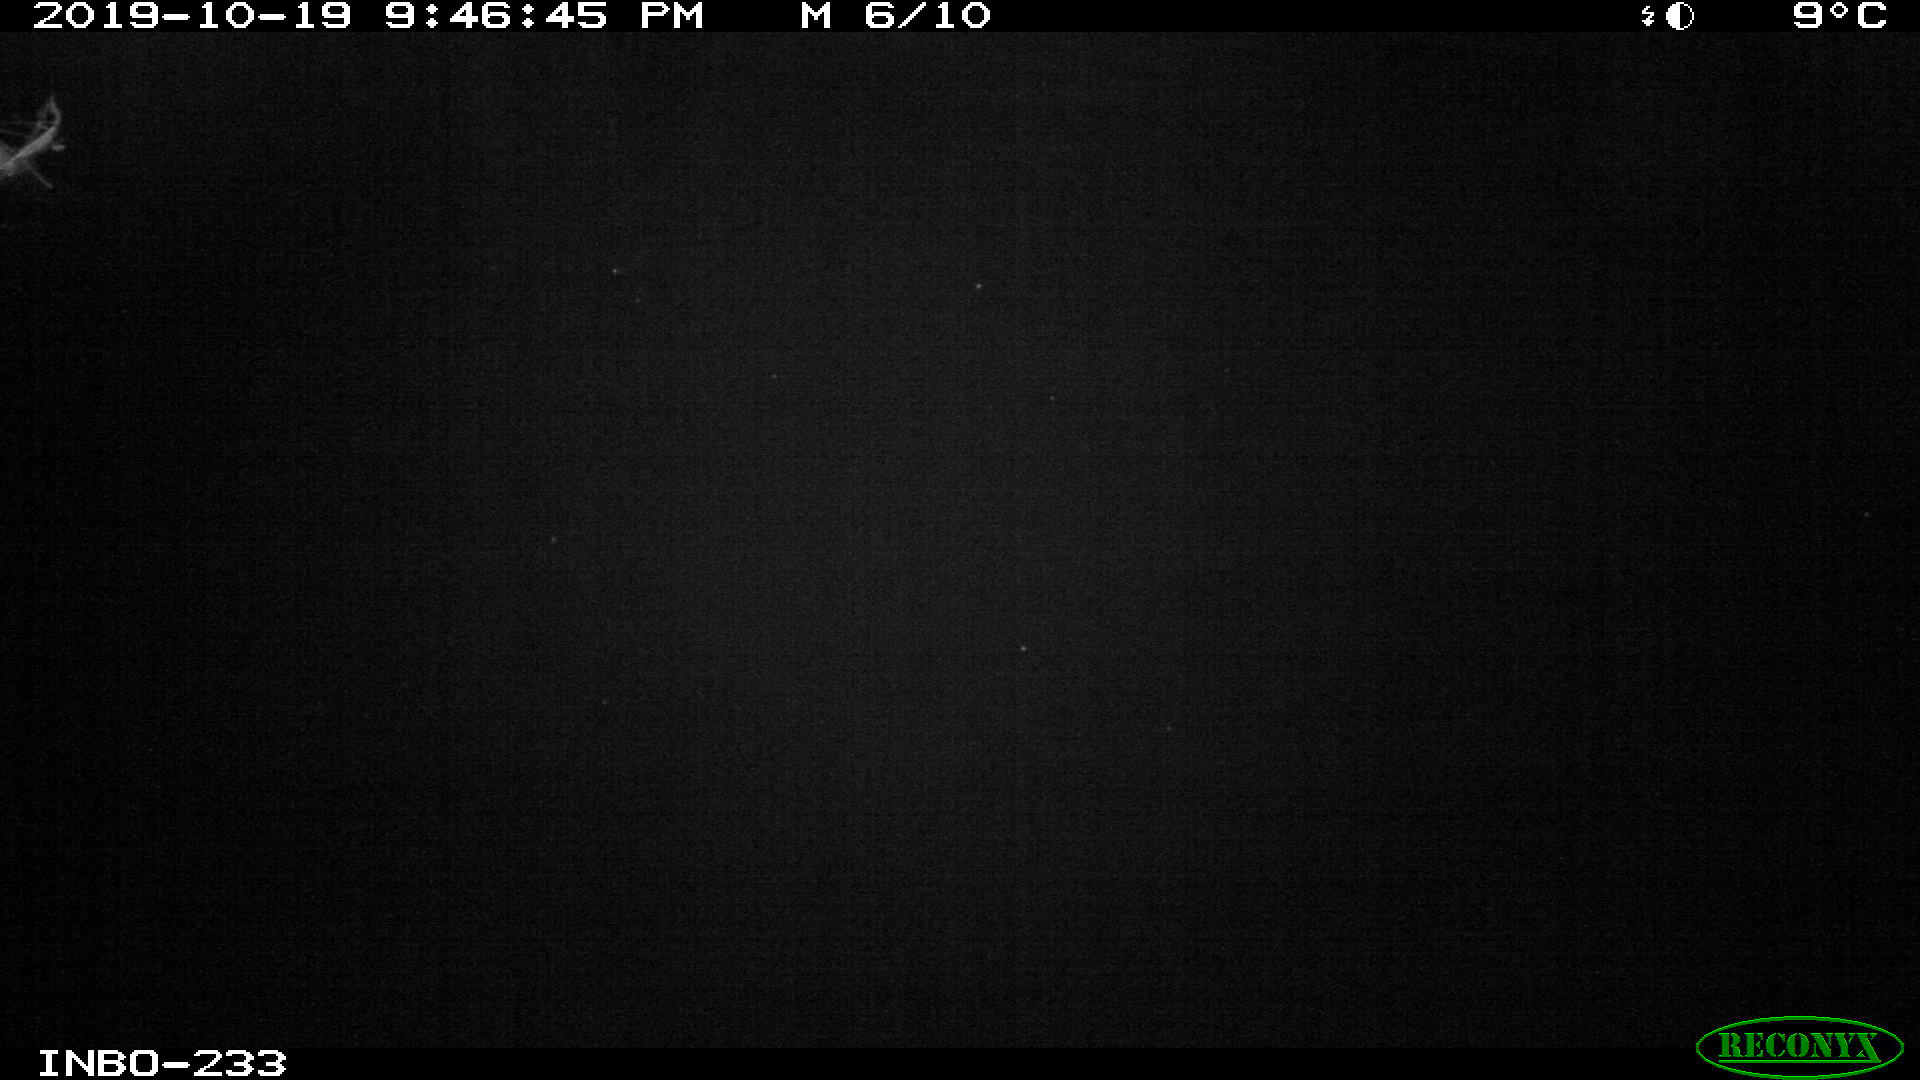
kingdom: Animalia
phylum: Chordata
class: Aves
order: Anseriformes
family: Anatidae
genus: Anas
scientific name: Anas platyrhynchos
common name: Mallard
